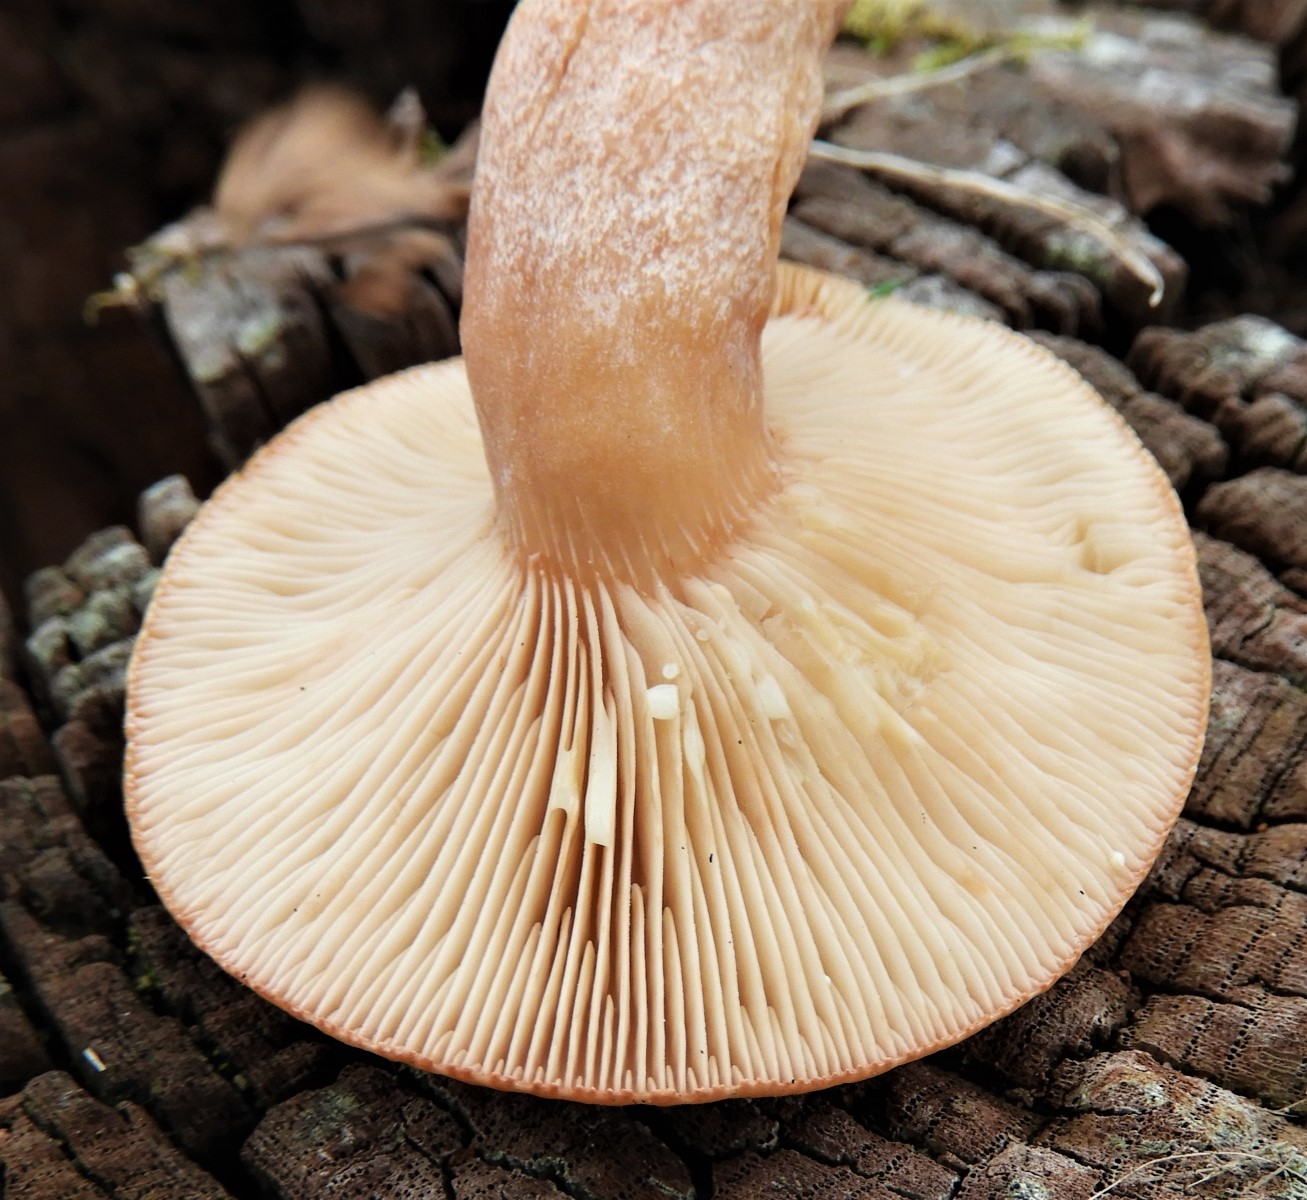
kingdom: Fungi
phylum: Basidiomycota
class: Agaricomycetes
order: Russulales
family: Russulaceae
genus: Lactarius
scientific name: Lactarius quietus
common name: ege-mælkehat
